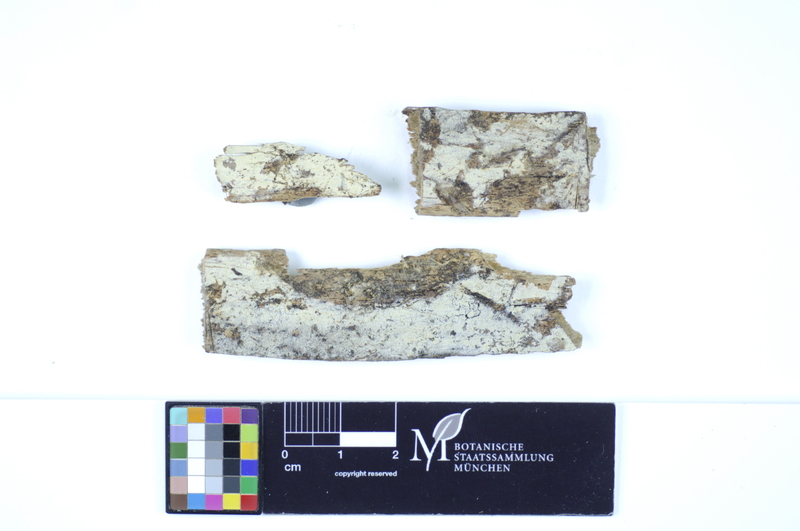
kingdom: Fungi
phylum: Basidiomycota
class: Agaricomycetes
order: Polyporales
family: Hyphodermataceae
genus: Hyphoderma
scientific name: Hyphoderma roseocremeum
